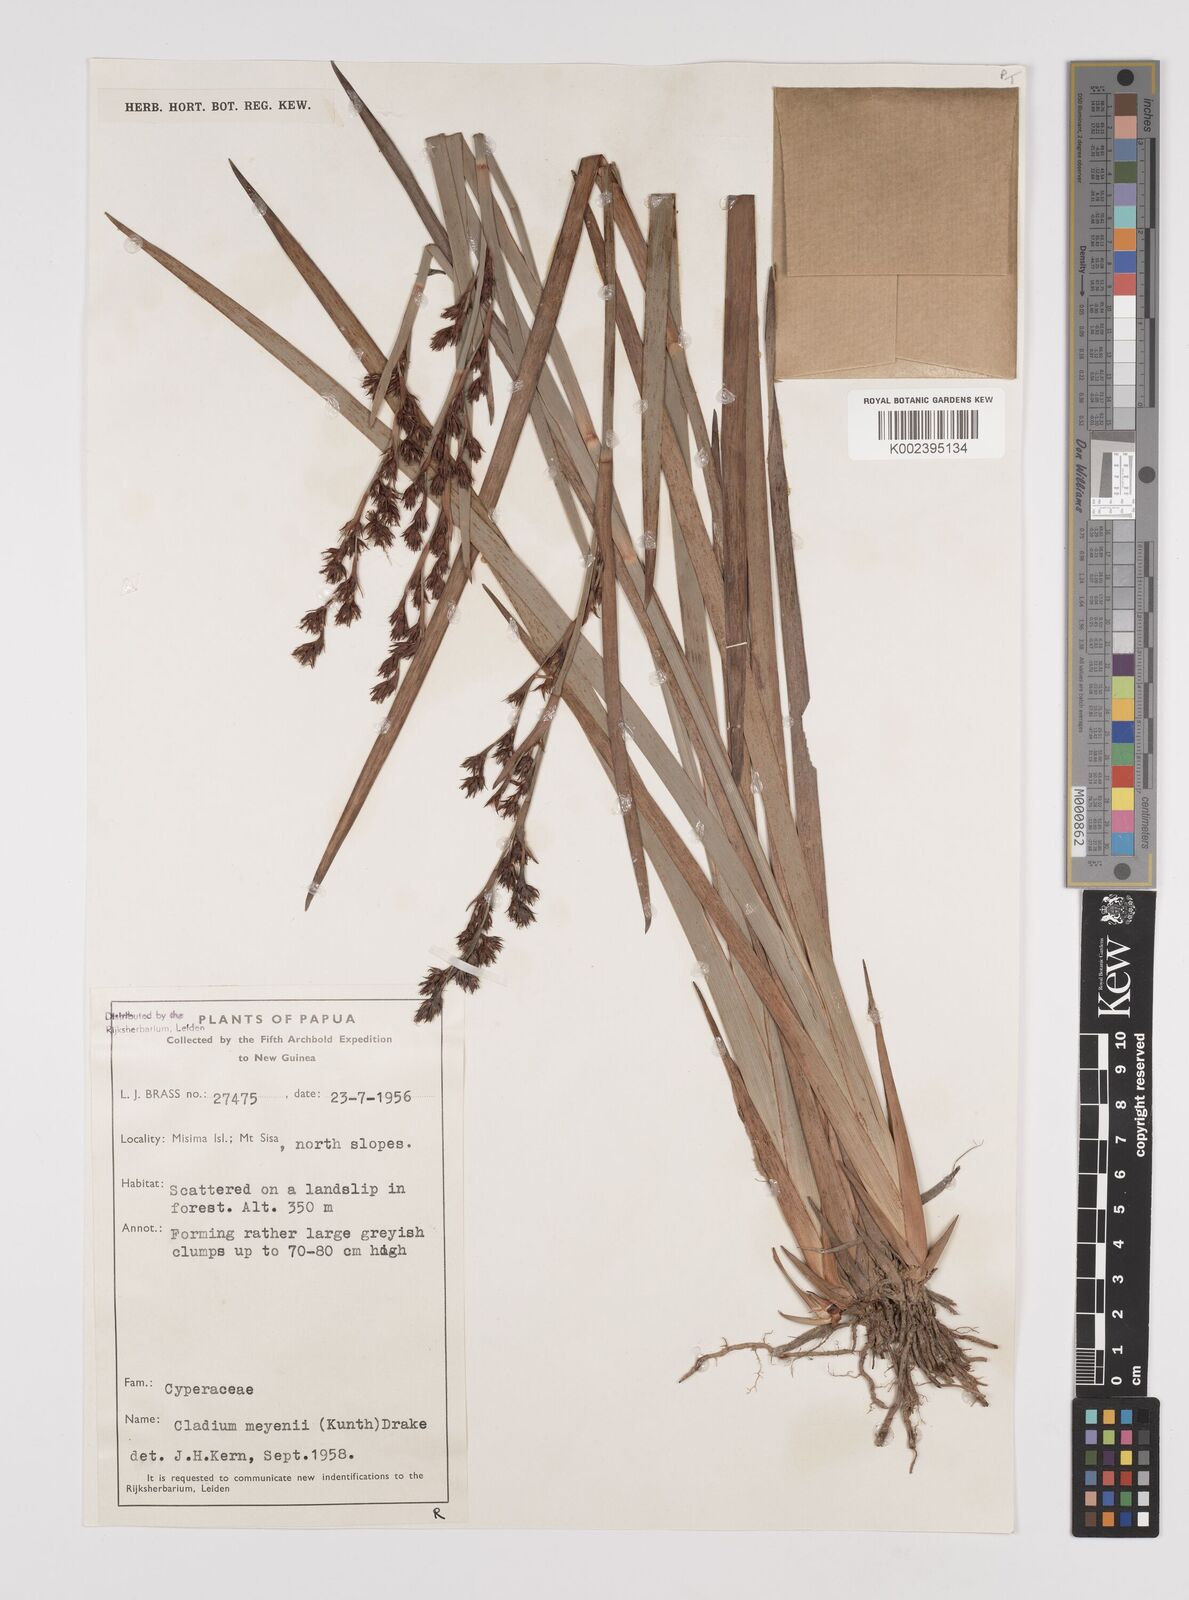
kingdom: Plantae
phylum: Tracheophyta
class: Liliopsida
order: Poales
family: Cyperaceae
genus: Machaerina
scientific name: Machaerina mariscoides
